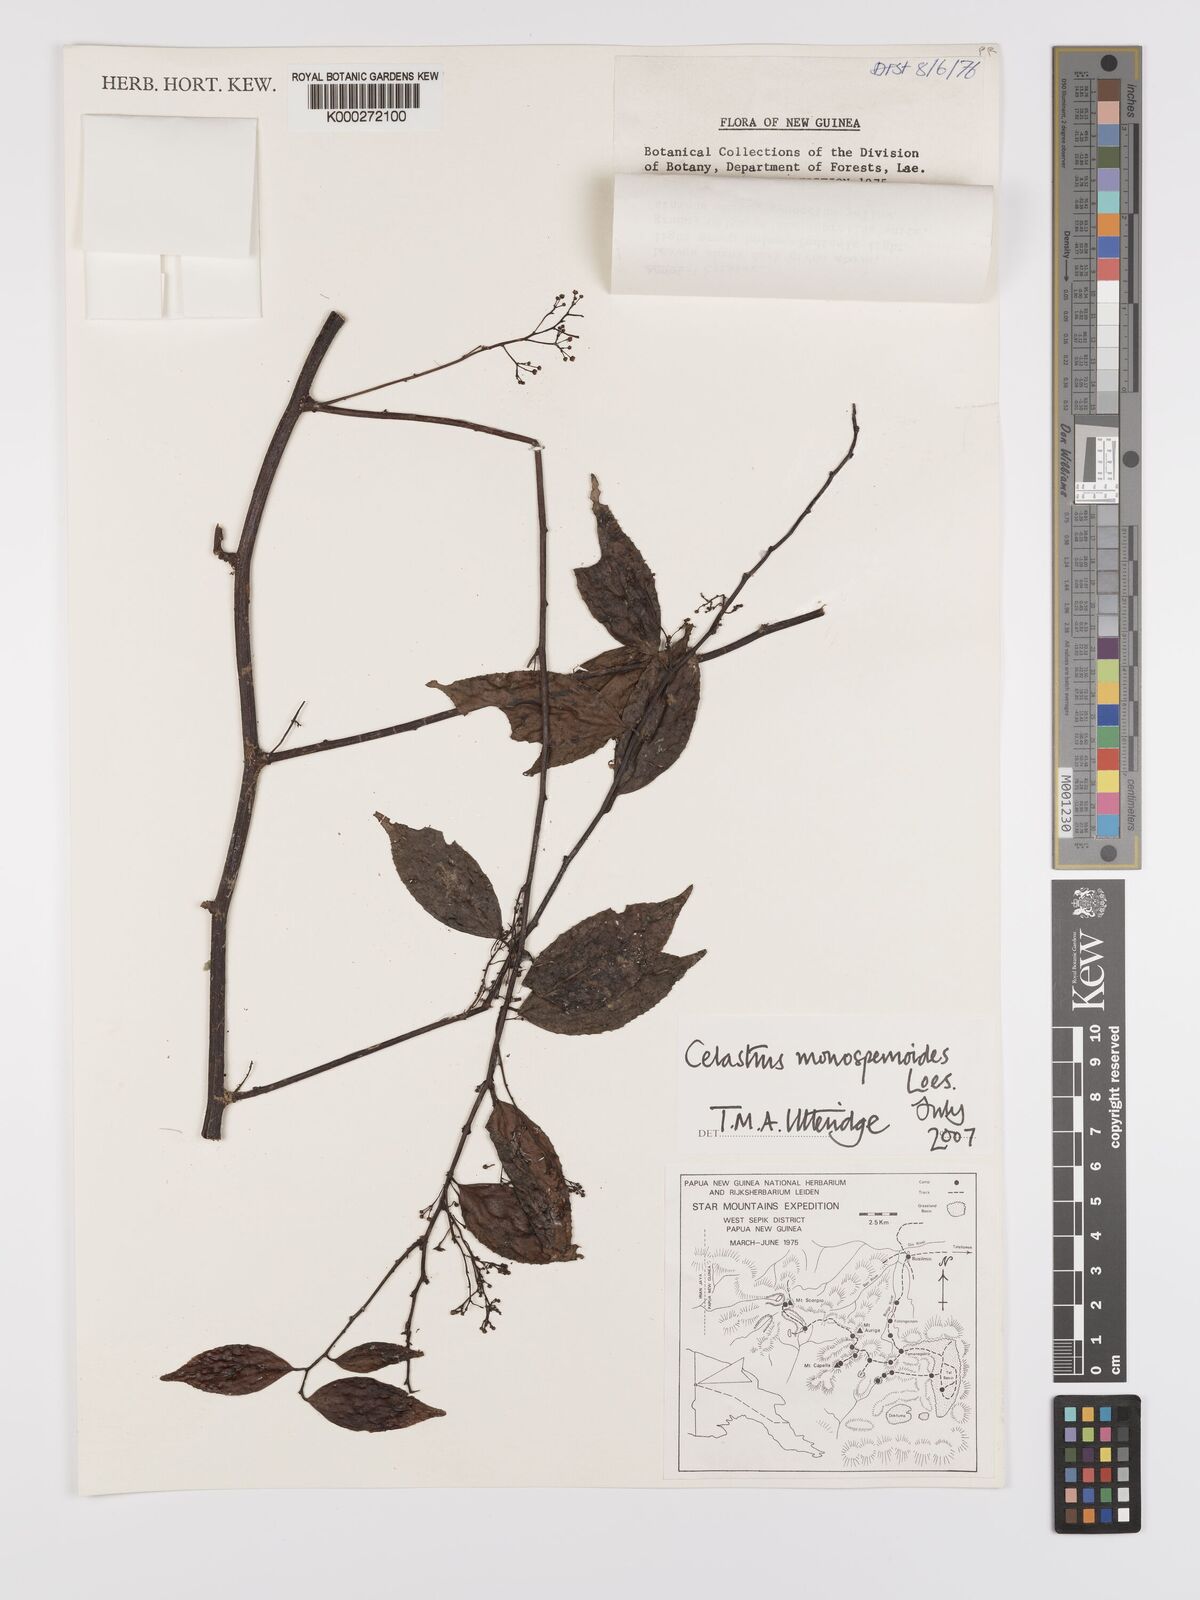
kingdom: Plantae
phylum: Tracheophyta
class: Magnoliopsida
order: Celastrales
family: Celastraceae
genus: Celastrus
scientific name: Celastrus monospermoides
